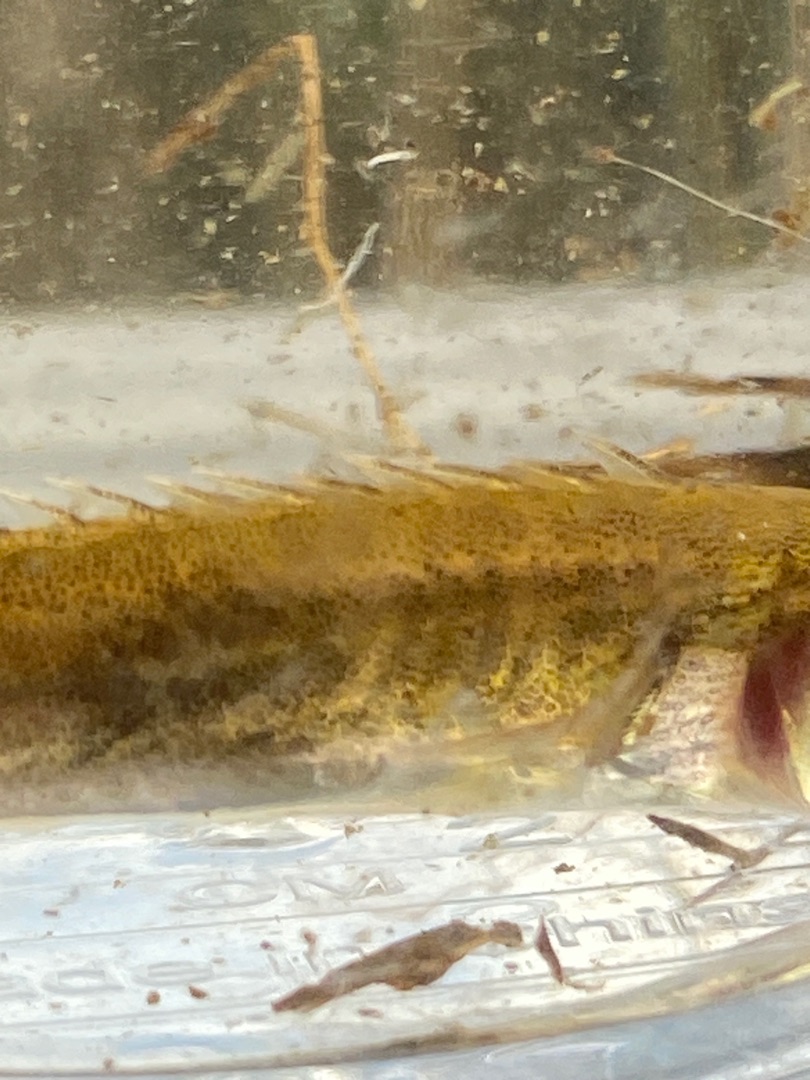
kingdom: Animalia
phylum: Chordata
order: Gasterosteiformes
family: Gasterosteidae
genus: Pungitius
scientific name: Pungitius pungitius
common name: Nipigget hundestejle
